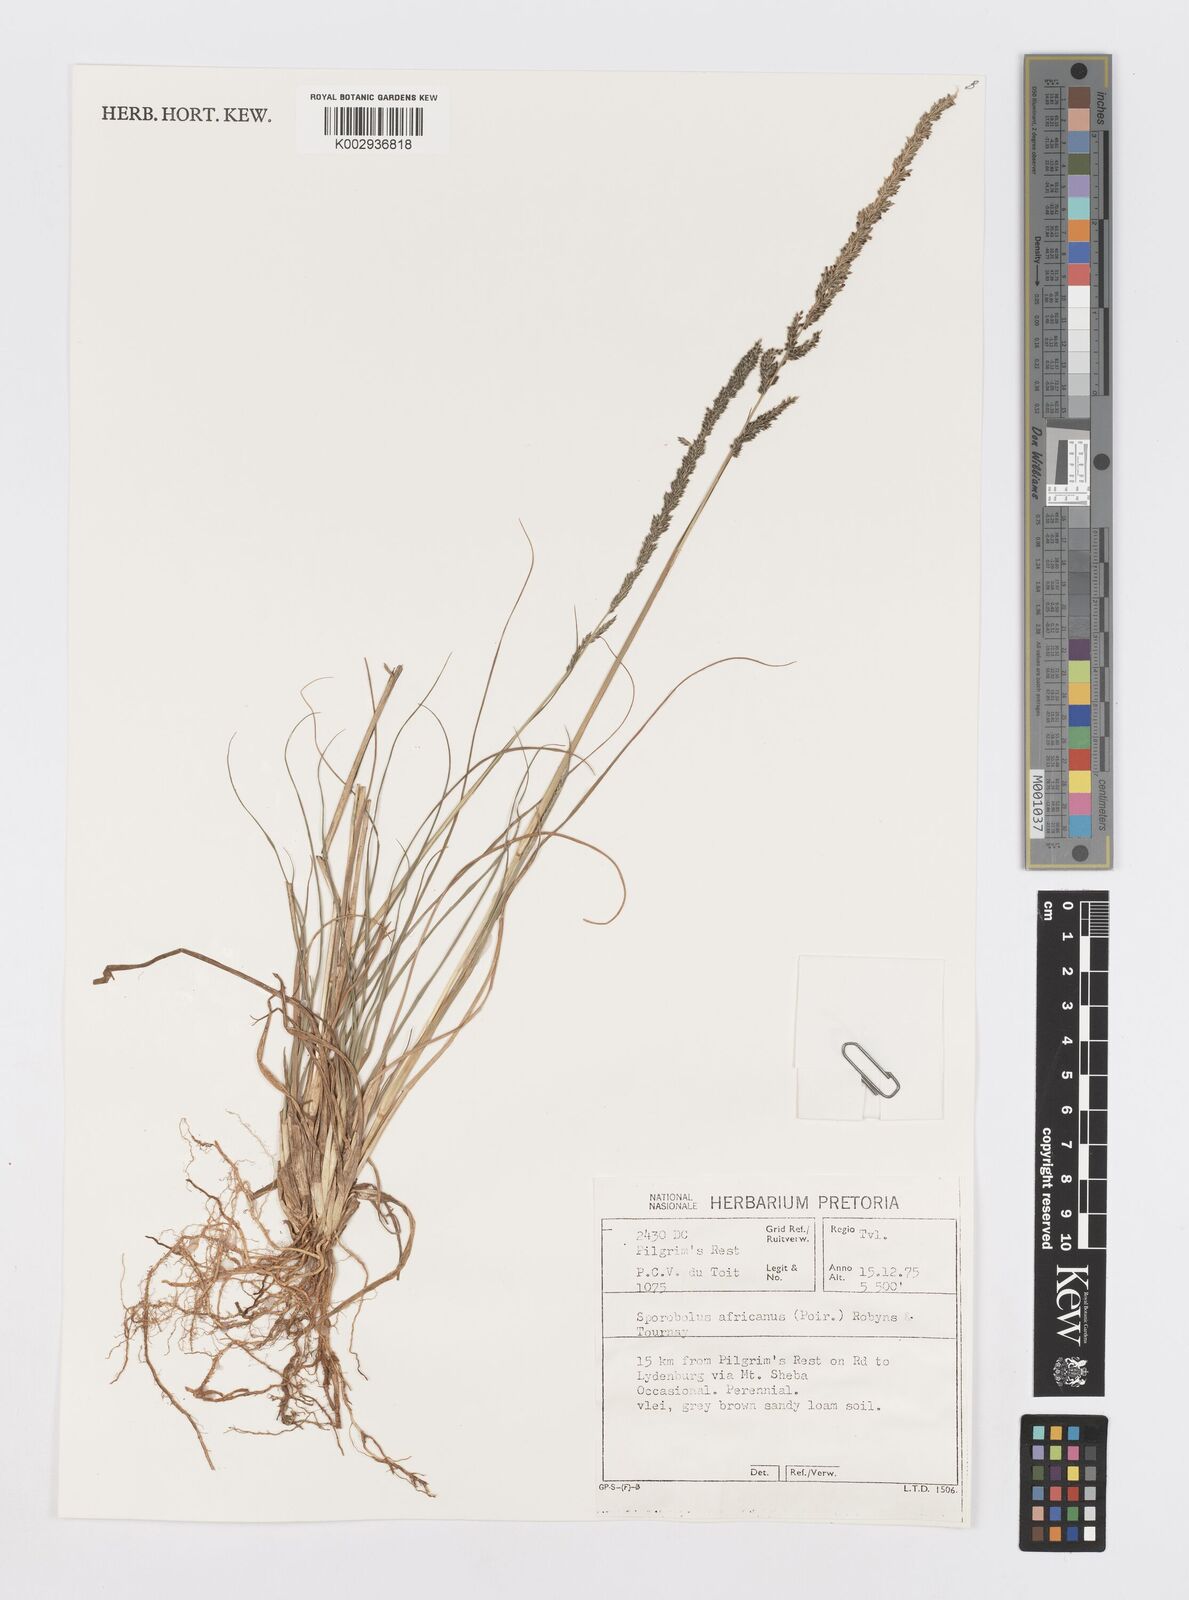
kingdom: Plantae
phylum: Tracheophyta
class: Liliopsida
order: Poales
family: Poaceae
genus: Sporobolus
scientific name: Sporobolus africanus
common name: African dropseed
